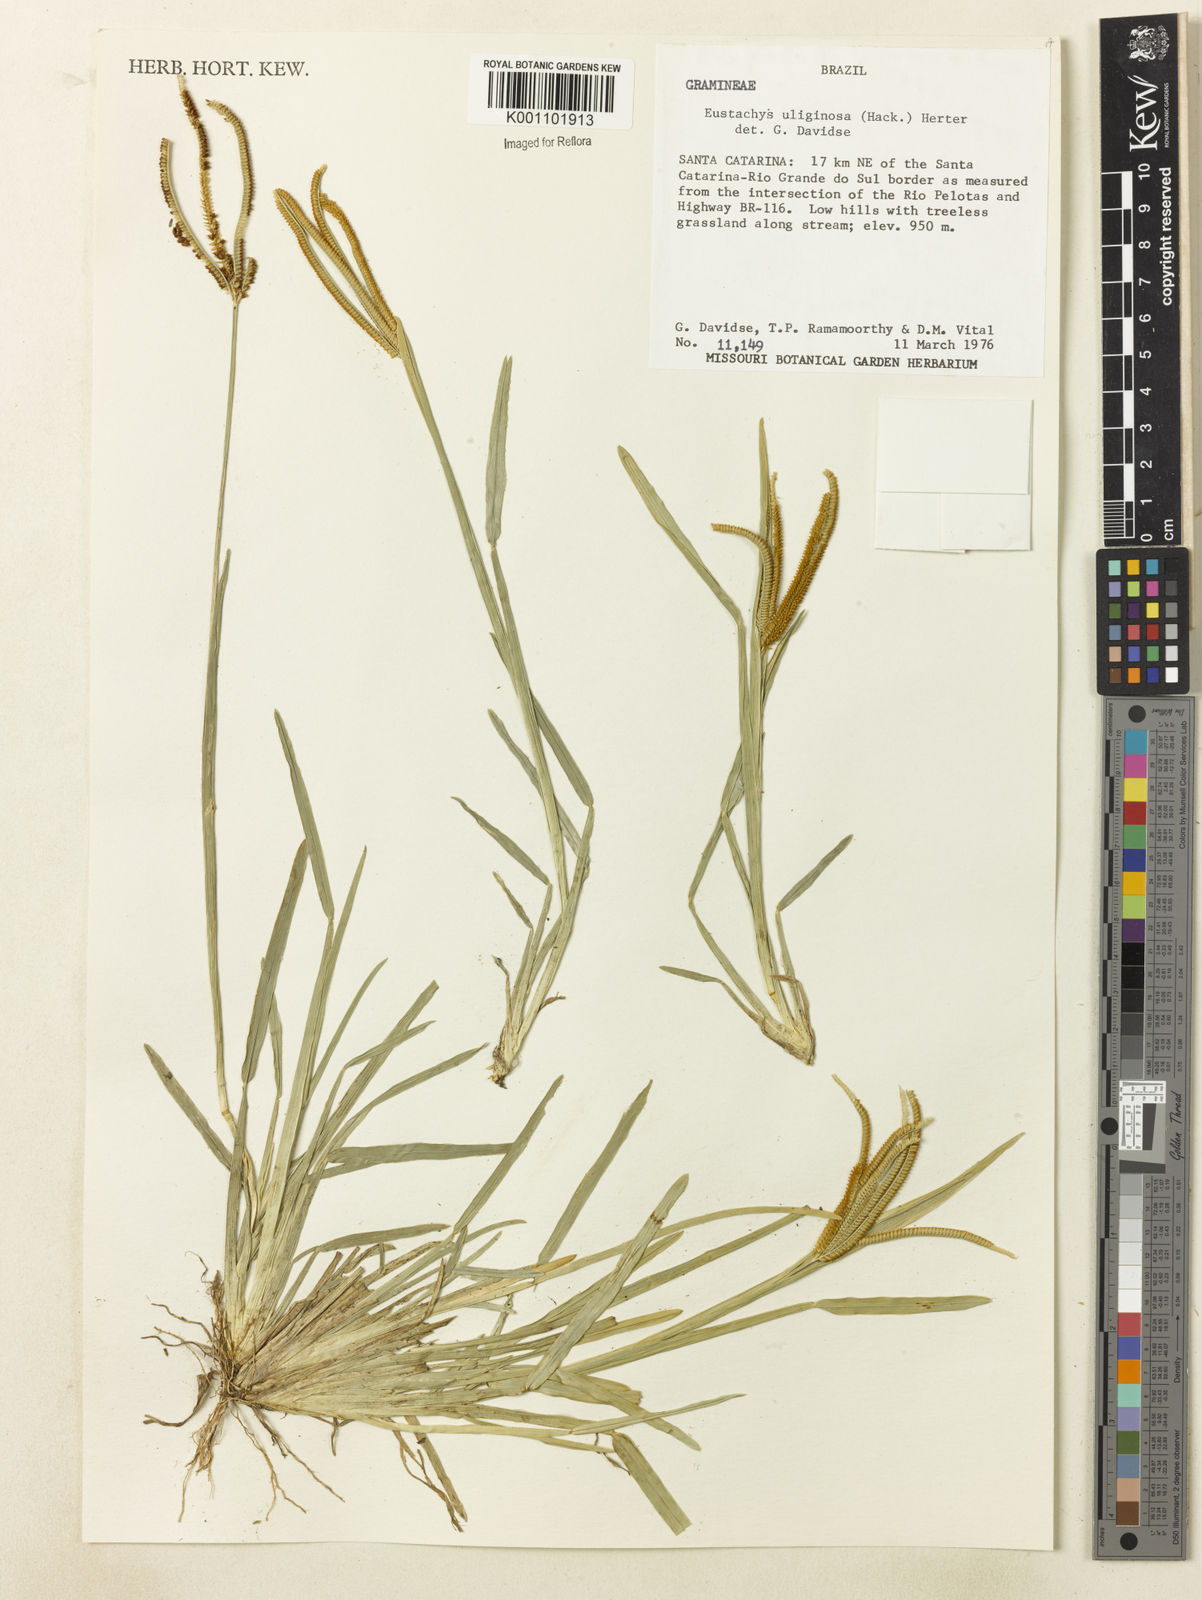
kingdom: Plantae
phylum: Tracheophyta
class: Liliopsida
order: Poales
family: Poaceae
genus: Eustachys
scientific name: Eustachys uliginosa
